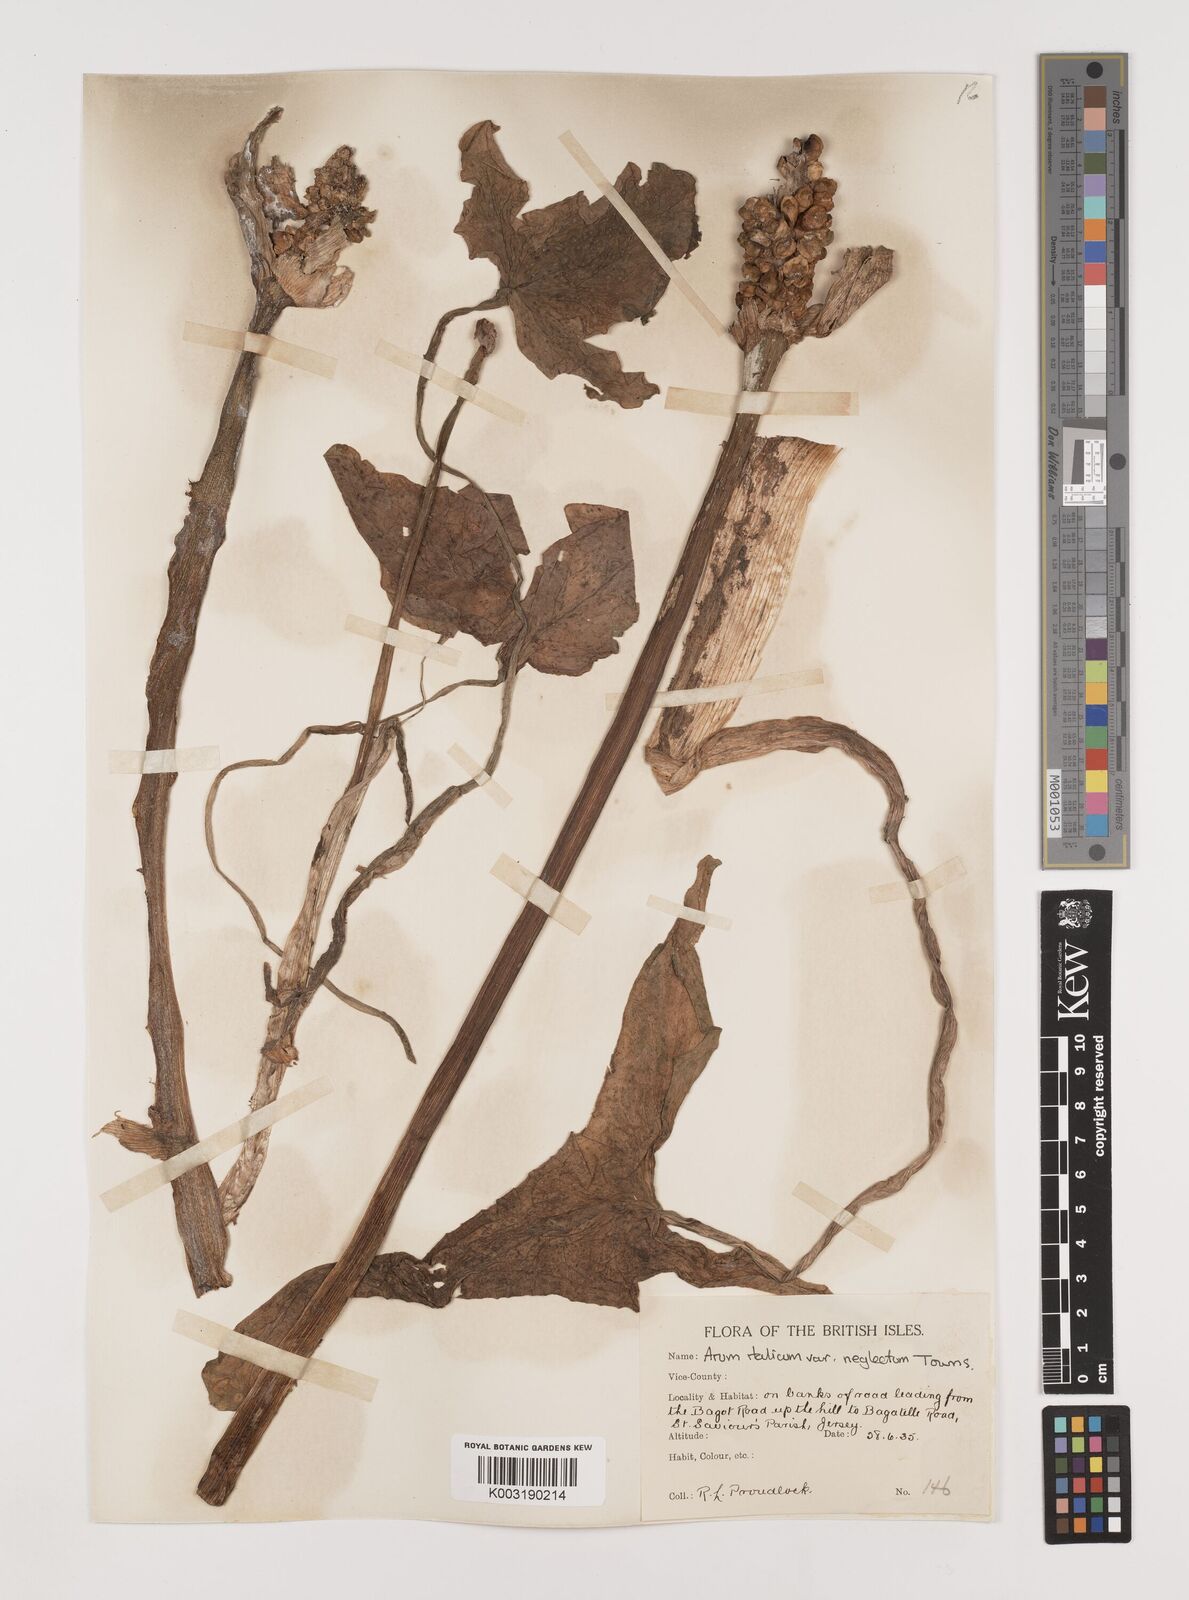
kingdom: Plantae
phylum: Tracheophyta
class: Liliopsida
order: Alismatales
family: Araceae
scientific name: Araceae
